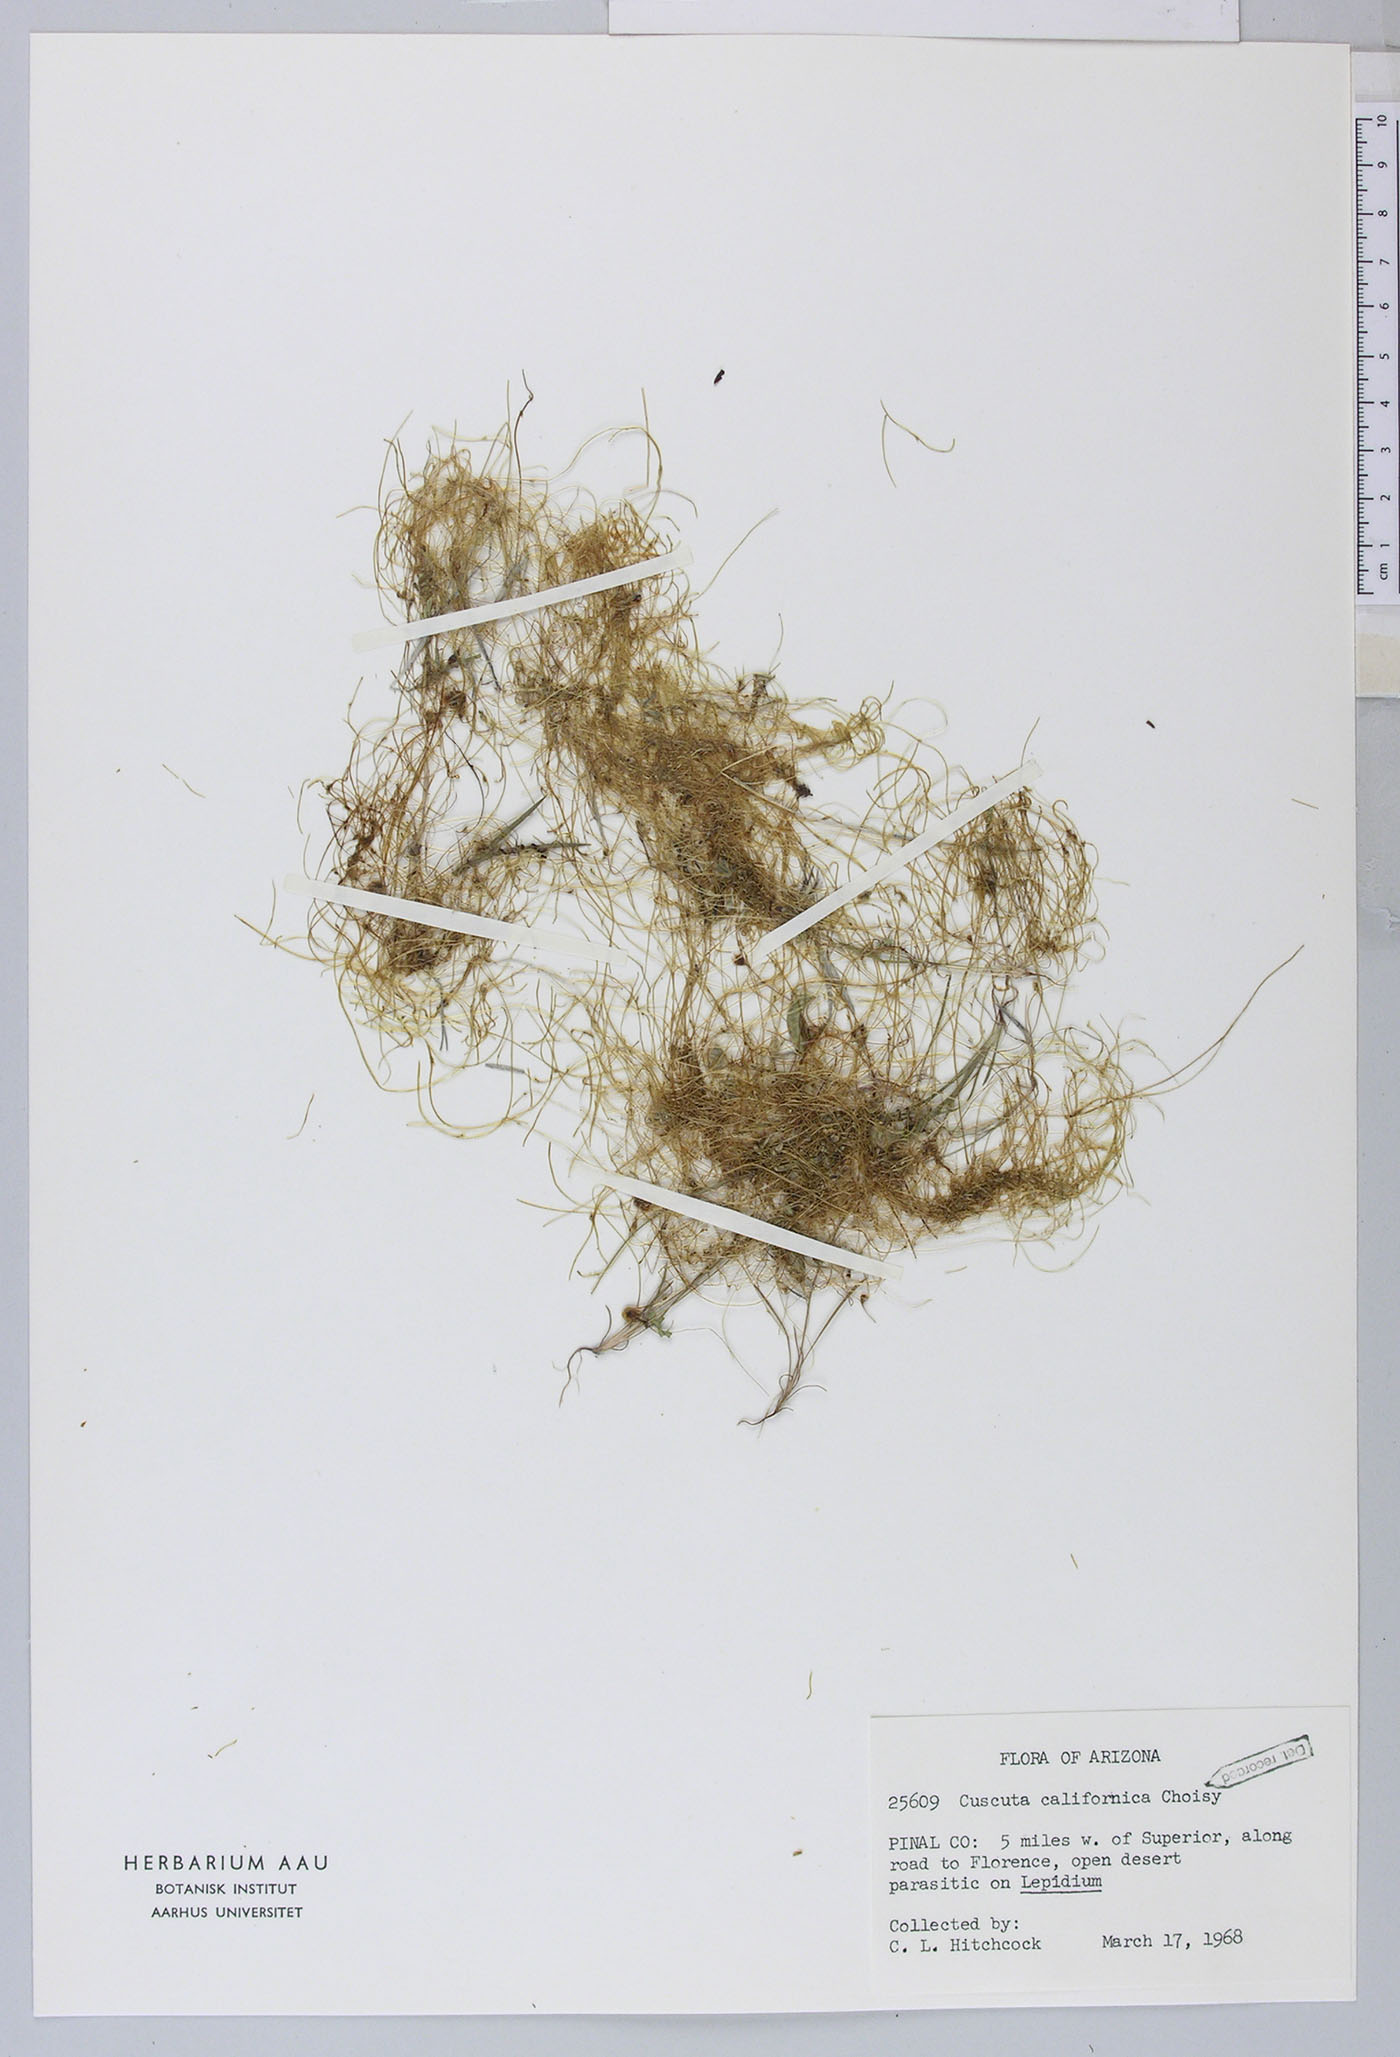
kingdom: Plantae
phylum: Tracheophyta
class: Magnoliopsida
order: Solanales
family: Convolvulaceae
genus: Cuscuta
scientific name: Cuscuta
